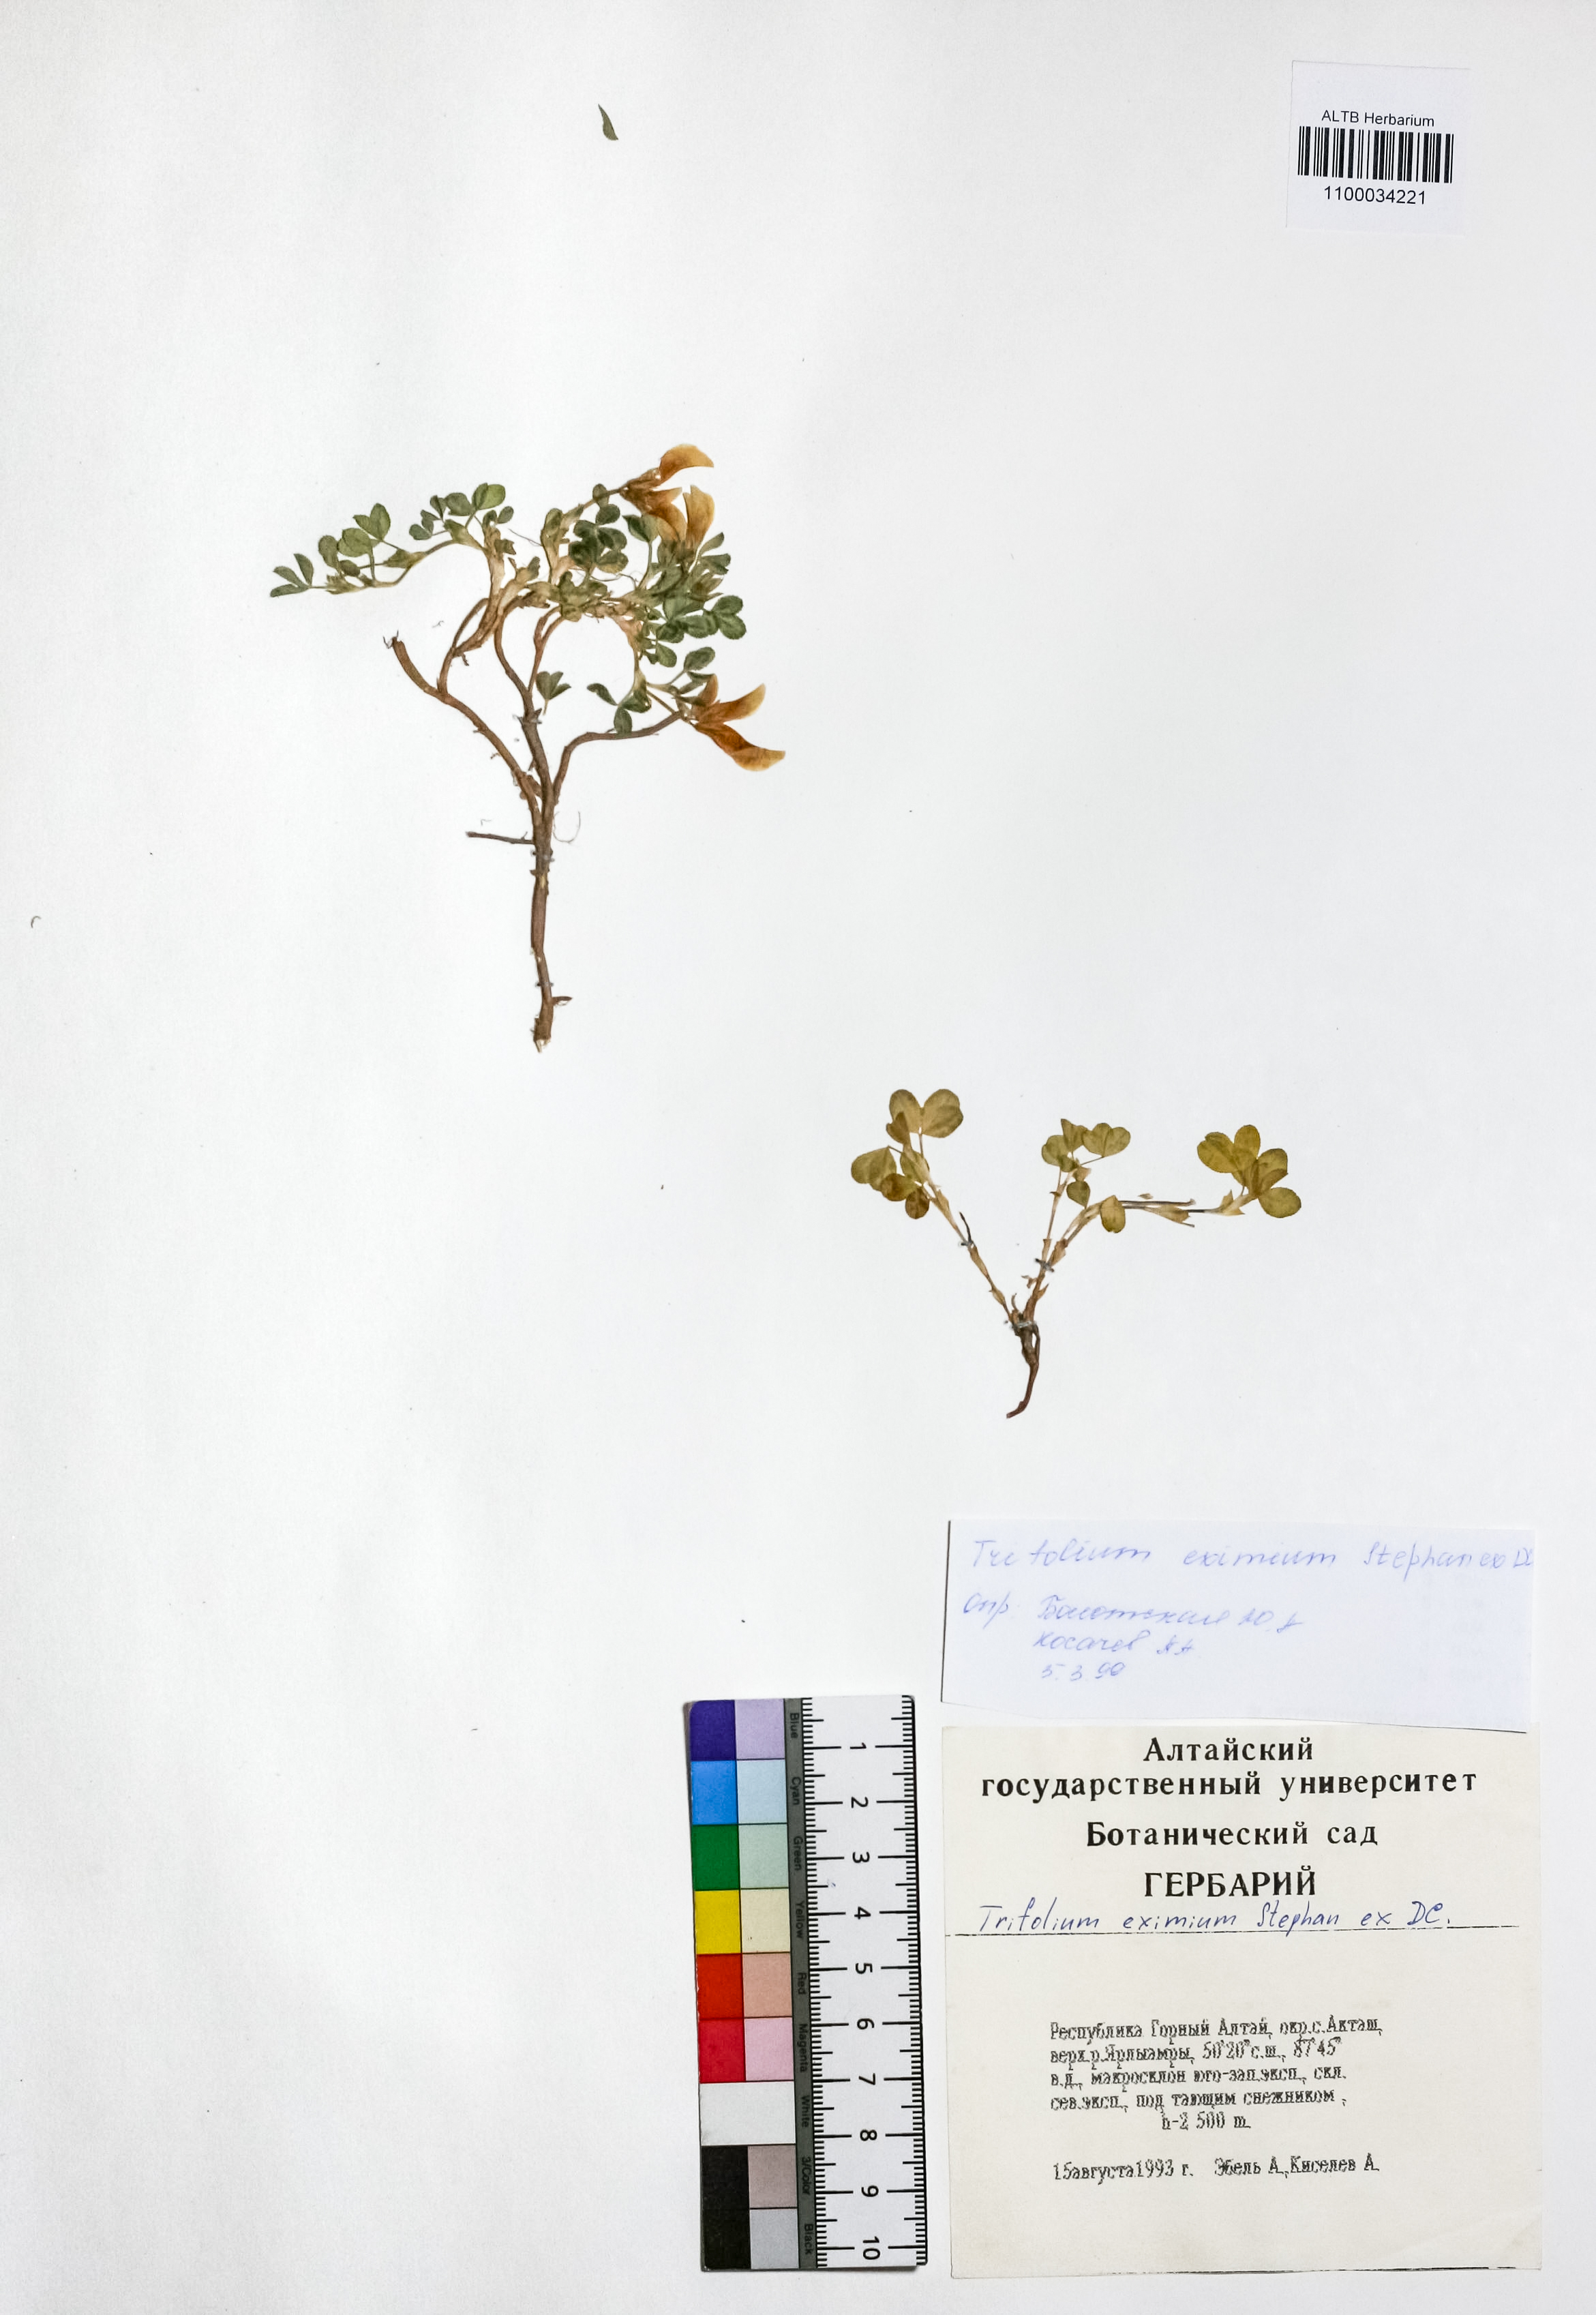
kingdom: Plantae
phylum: Tracheophyta
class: Magnoliopsida
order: Fabales
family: Fabaceae
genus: Trifolium
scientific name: Trifolium eximium
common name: Excellent clover
